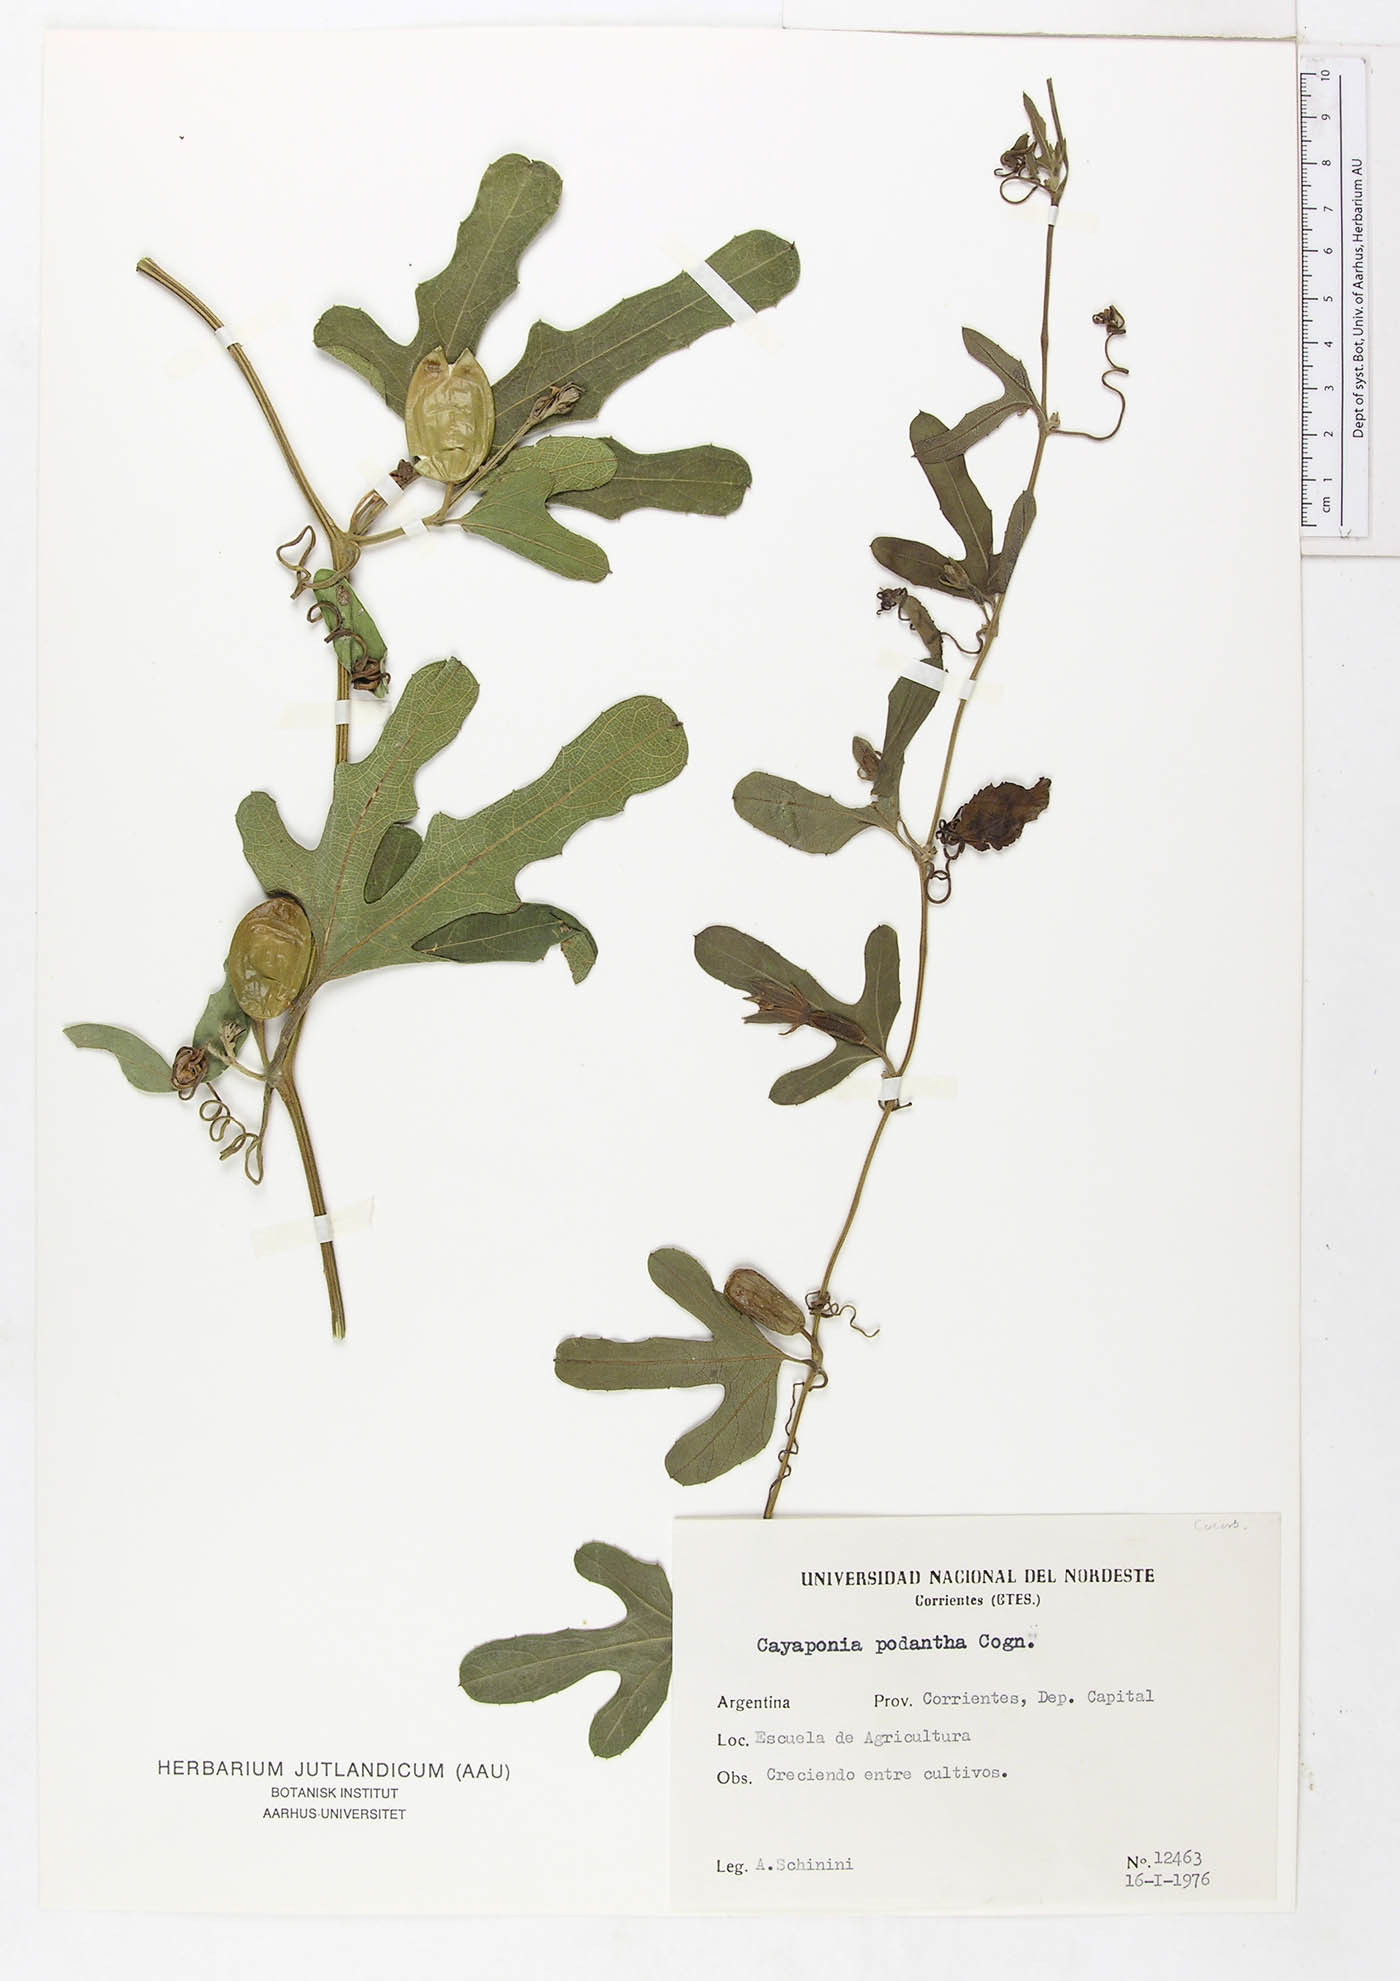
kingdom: Plantae
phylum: Tracheophyta
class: Magnoliopsida
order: Cucurbitales
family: Cucurbitaceae
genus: Cayaponia
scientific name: Cayaponia podantha
